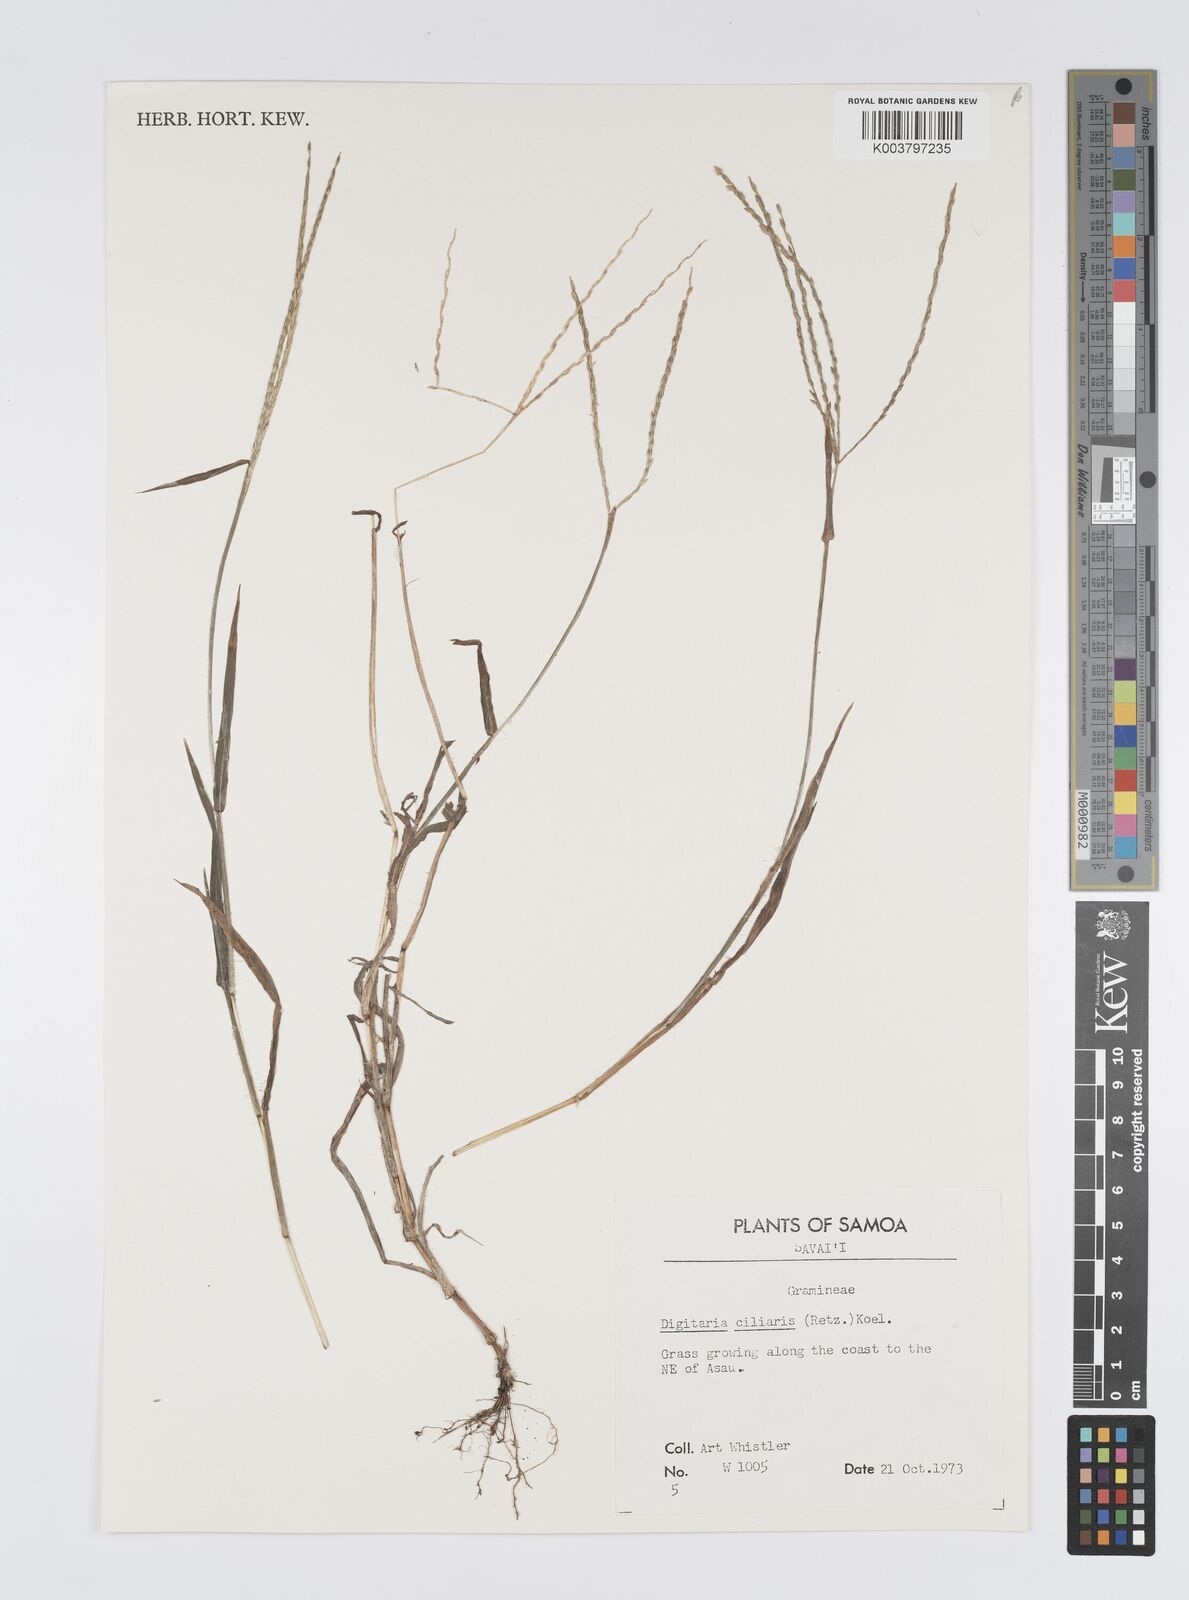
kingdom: Plantae
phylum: Tracheophyta
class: Liliopsida
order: Poales
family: Poaceae
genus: Digitaria
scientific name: Digitaria ciliaris
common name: Tropical finger-grass
